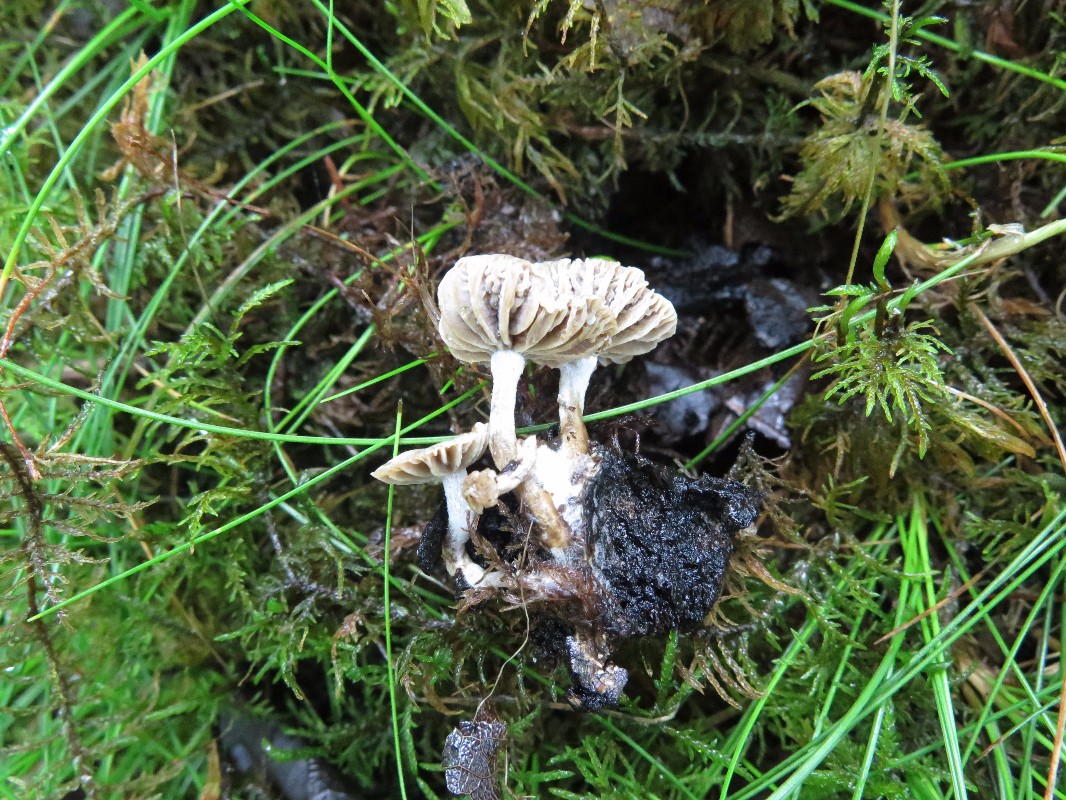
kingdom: Fungi
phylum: Basidiomycota
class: Agaricomycetes
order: Agaricales
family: Lyophyllaceae
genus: Asterophora
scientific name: Asterophora parasitica
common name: grå snyltehat
